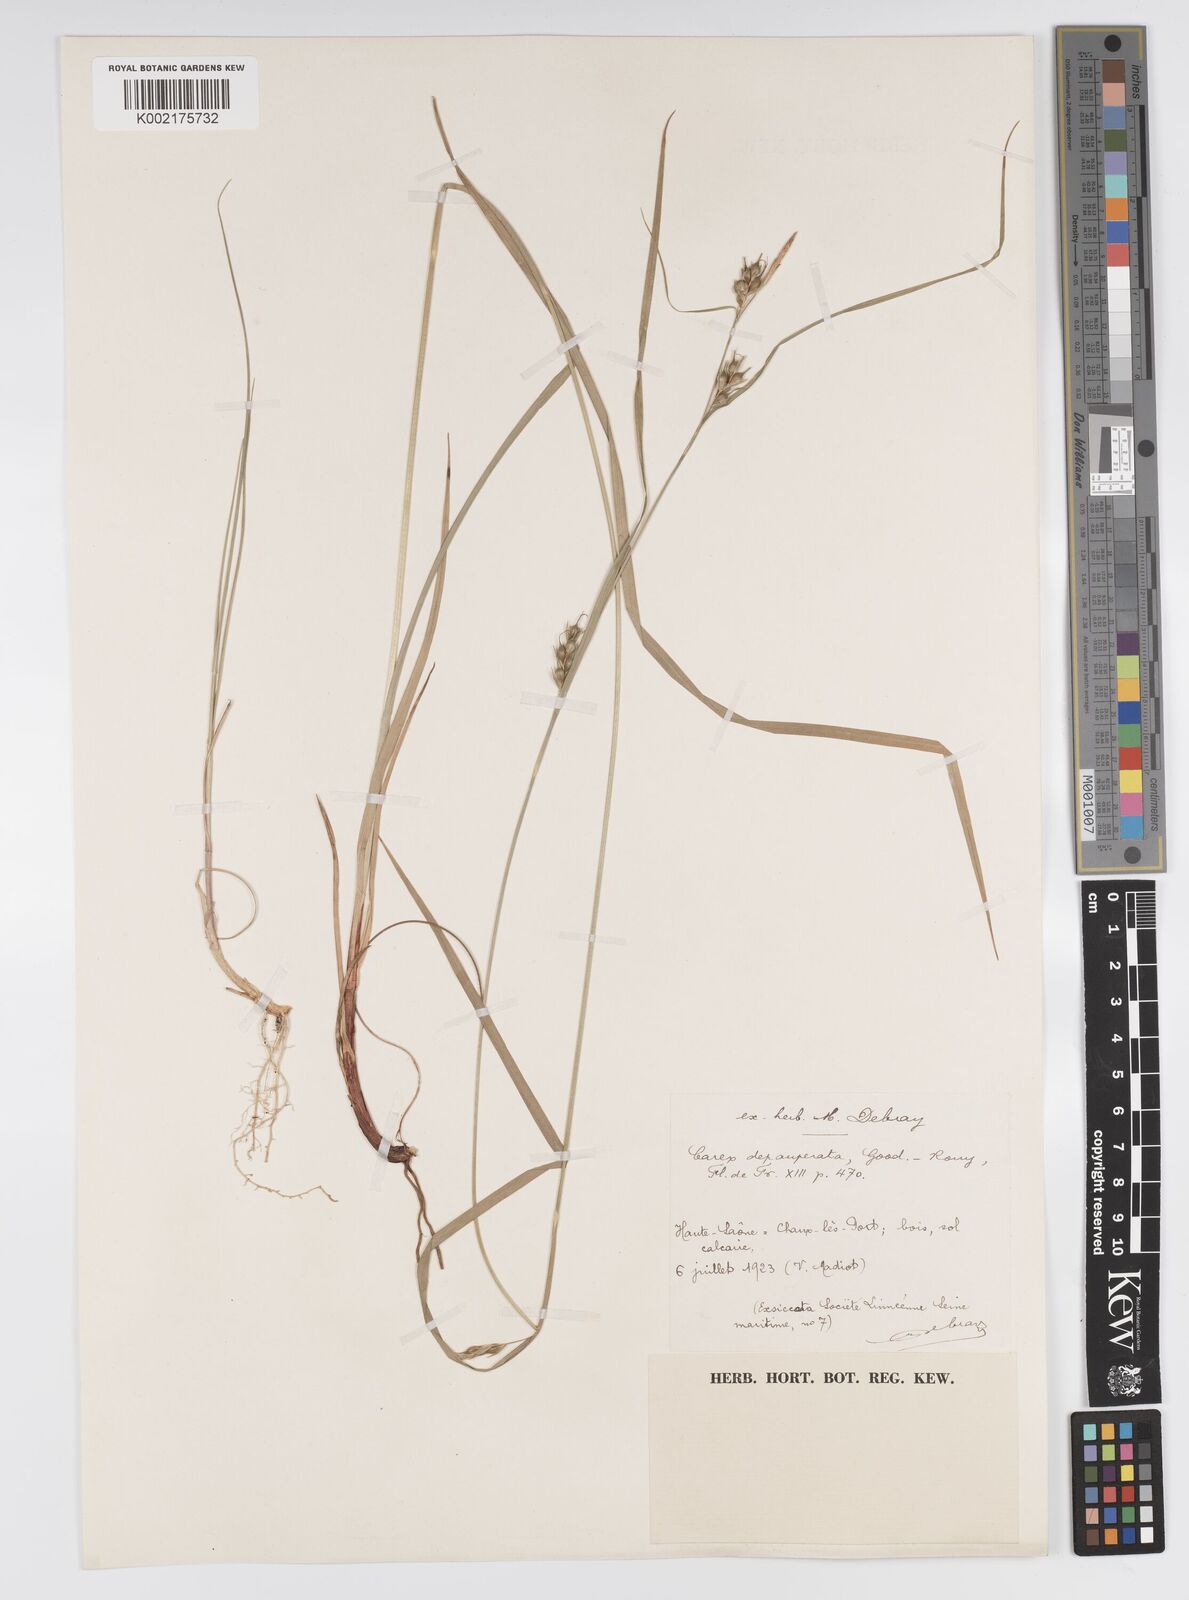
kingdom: Plantae
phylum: Tracheophyta
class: Liliopsida
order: Poales
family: Cyperaceae
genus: Carex
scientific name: Carex
